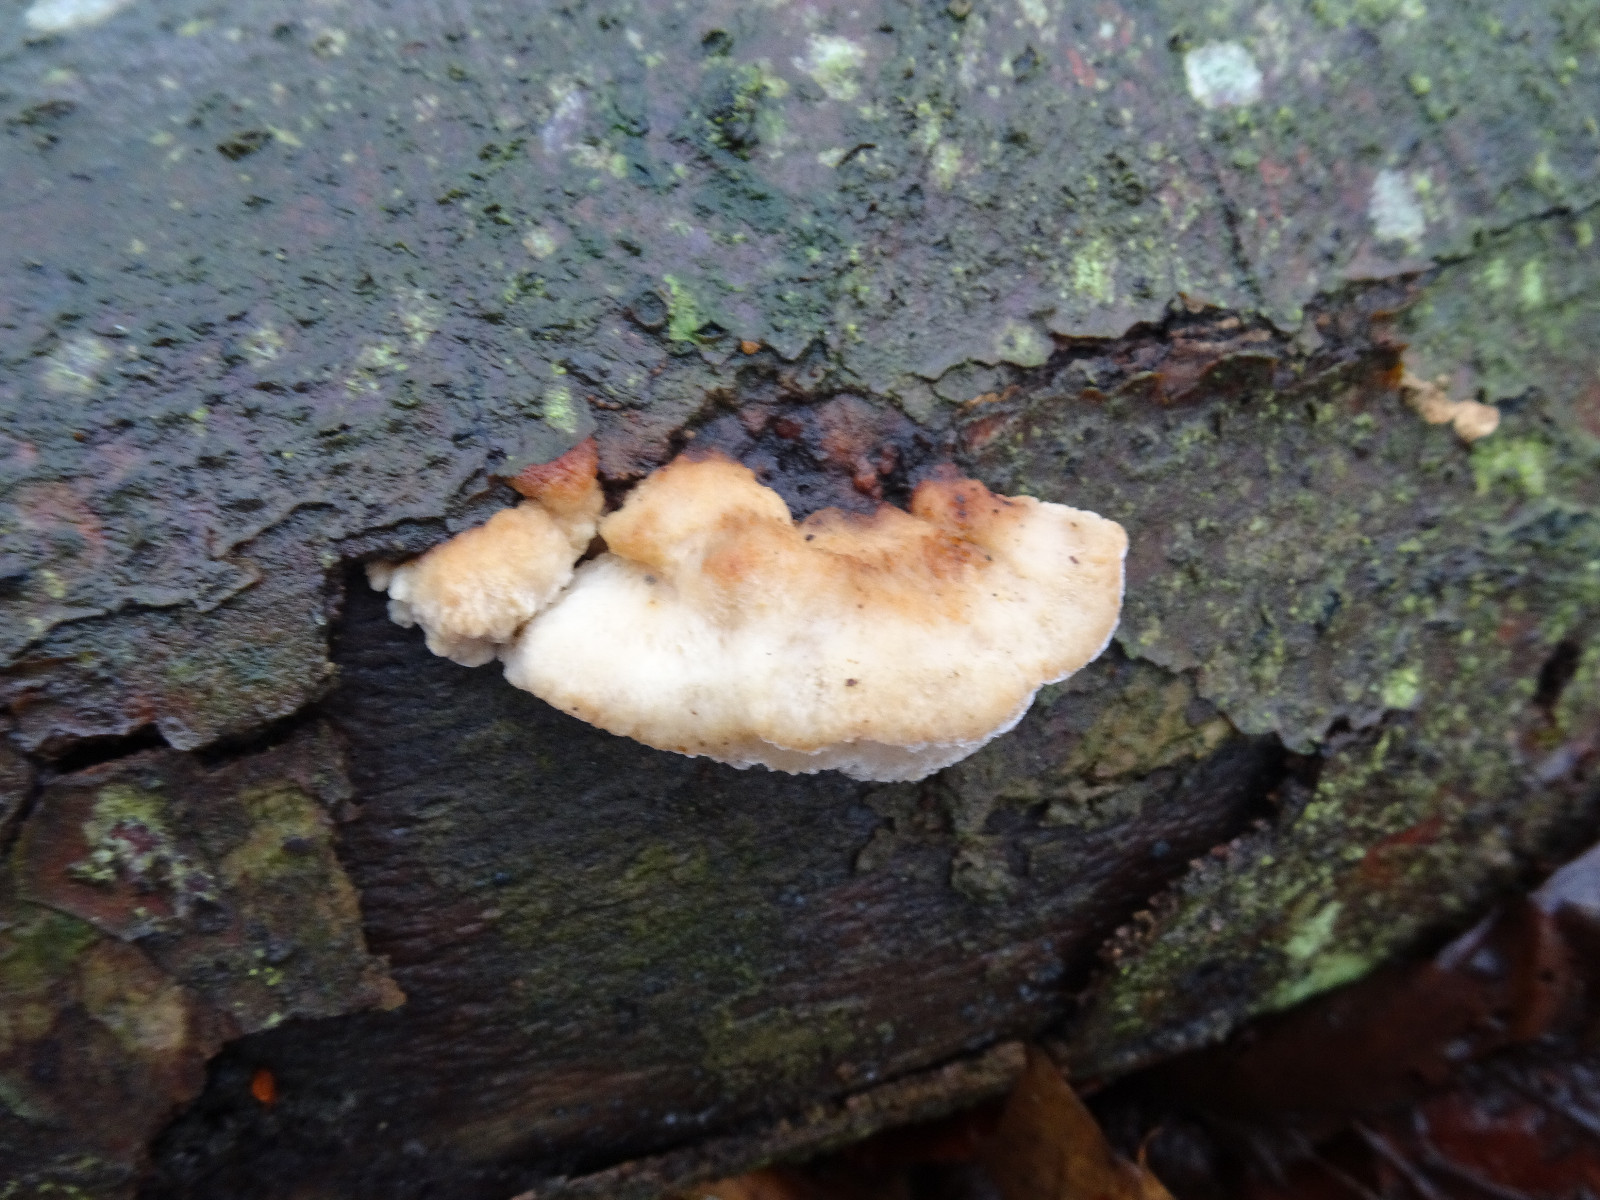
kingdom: Fungi
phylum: Basidiomycota
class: Agaricomycetes
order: Polyporales
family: Incrustoporiaceae
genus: Skeletocutis
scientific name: Skeletocutis nemoralis
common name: stor krystalporesvamp
